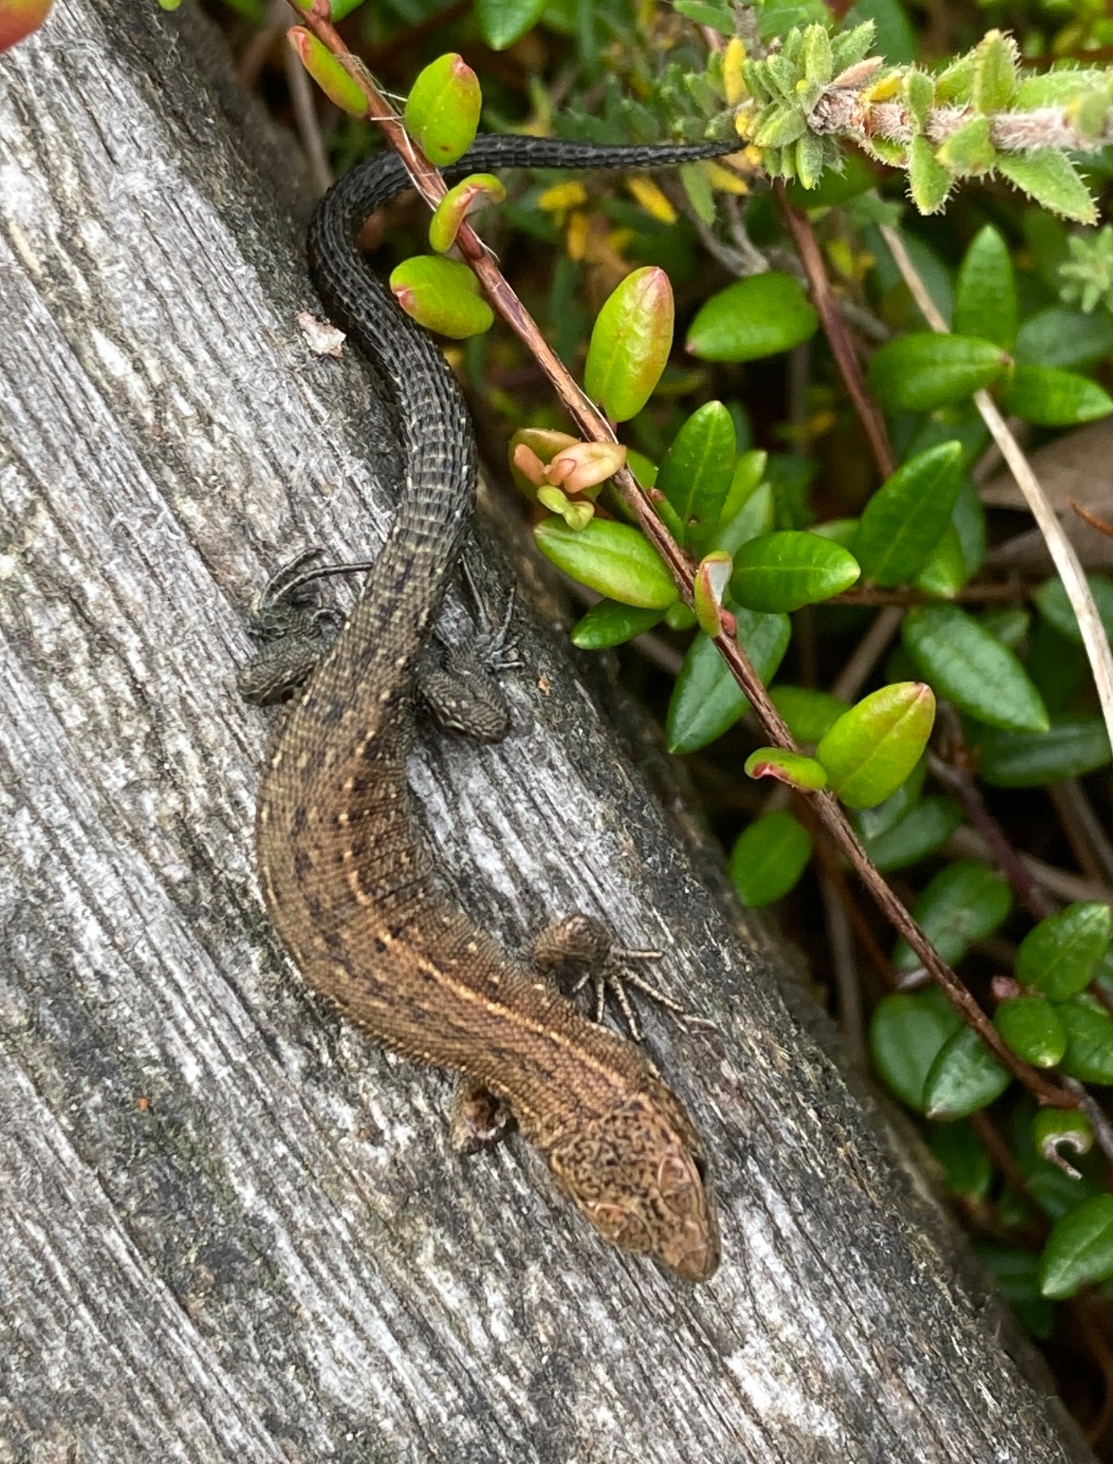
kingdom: Animalia
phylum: Chordata
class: Squamata
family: Lacertidae
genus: Zootoca
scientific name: Zootoca vivipara
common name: Skovfirben
